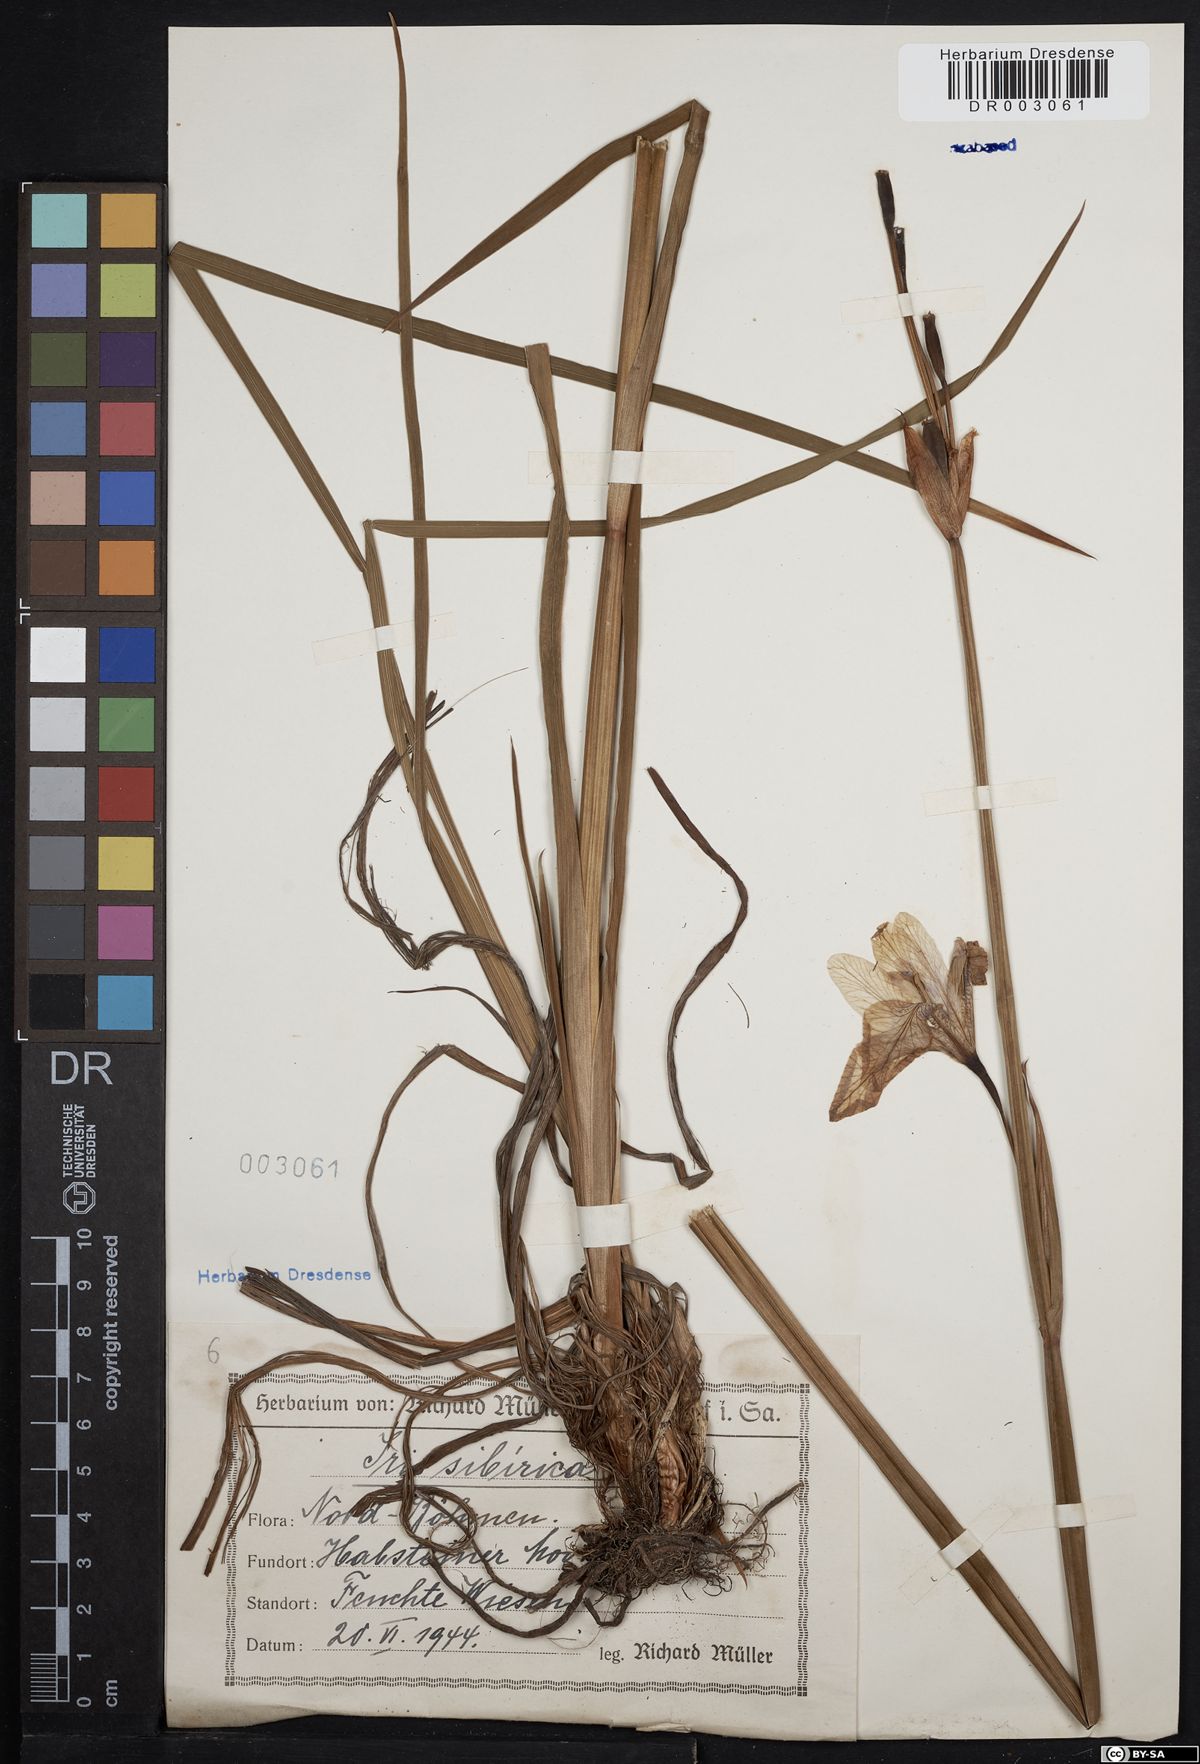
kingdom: Plantae
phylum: Tracheophyta
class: Liliopsida
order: Asparagales
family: Iridaceae
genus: Iris
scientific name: Iris sibirica
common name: Siberian iris
